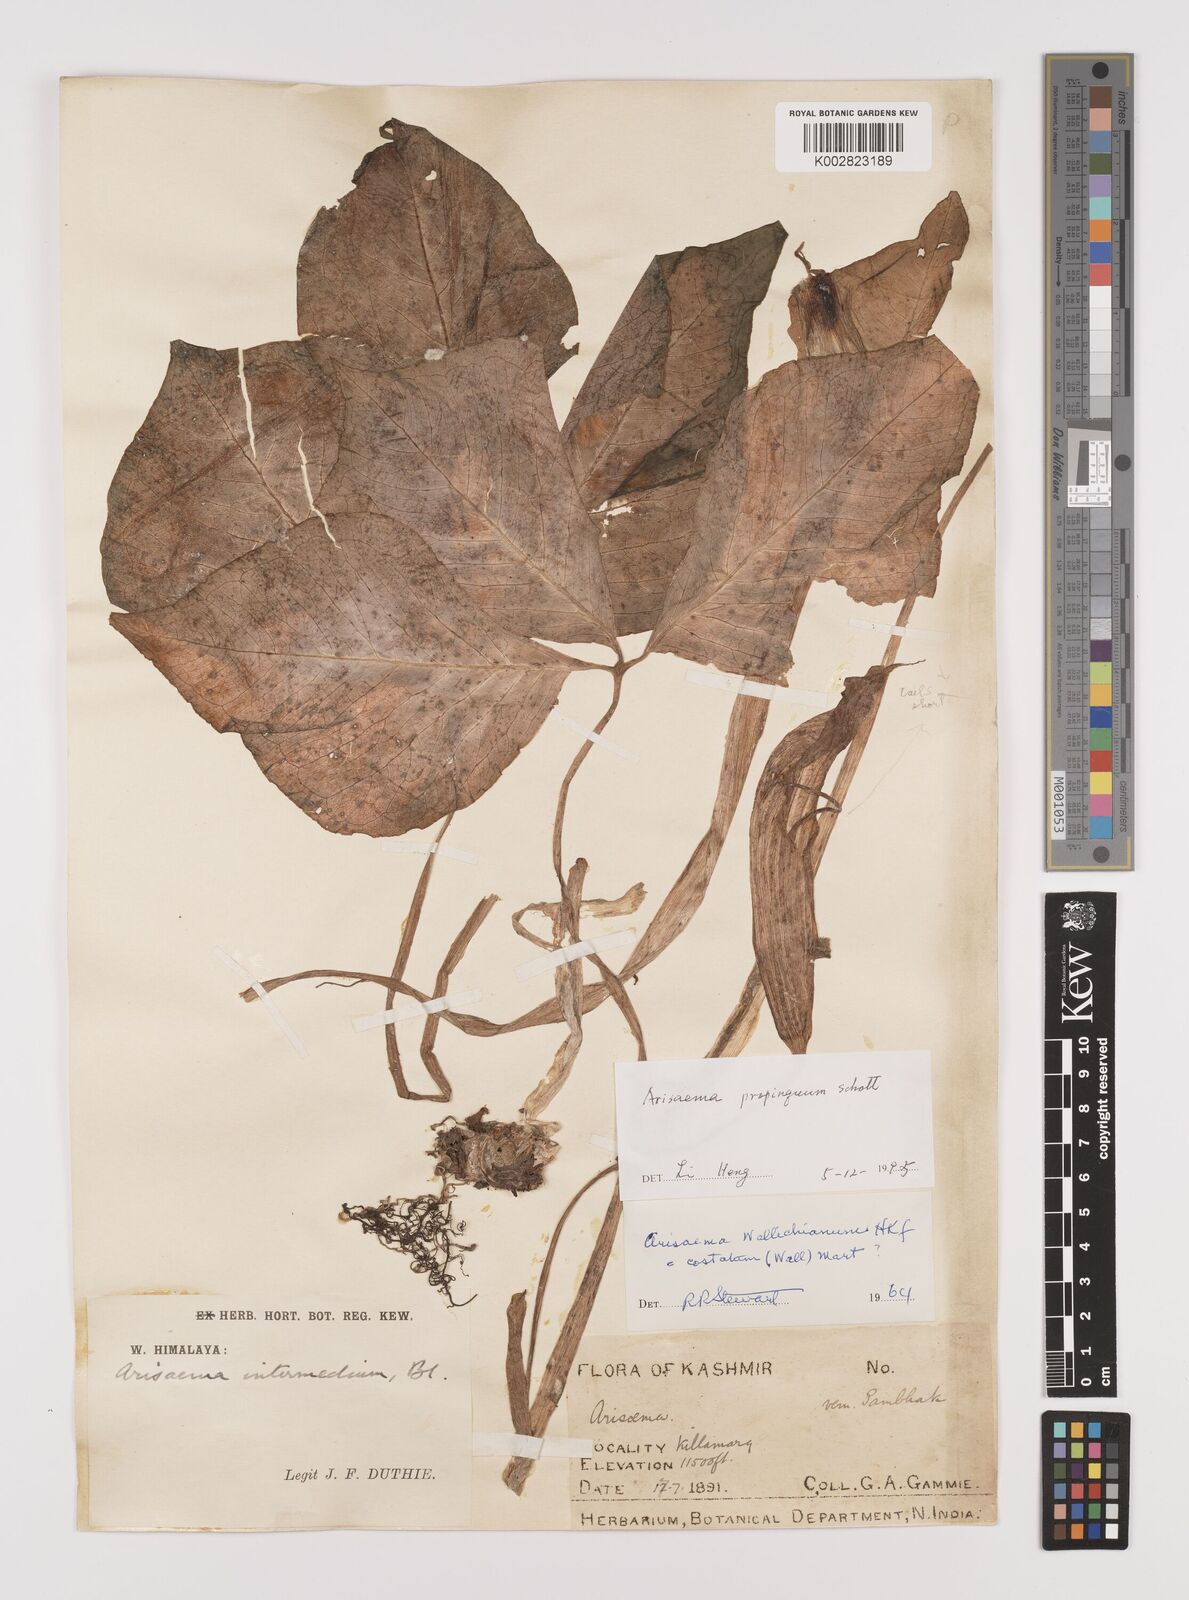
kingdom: Plantae
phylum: Tracheophyta
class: Liliopsida
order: Alismatales
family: Araceae
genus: Arisaema
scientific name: Arisaema propinquum
